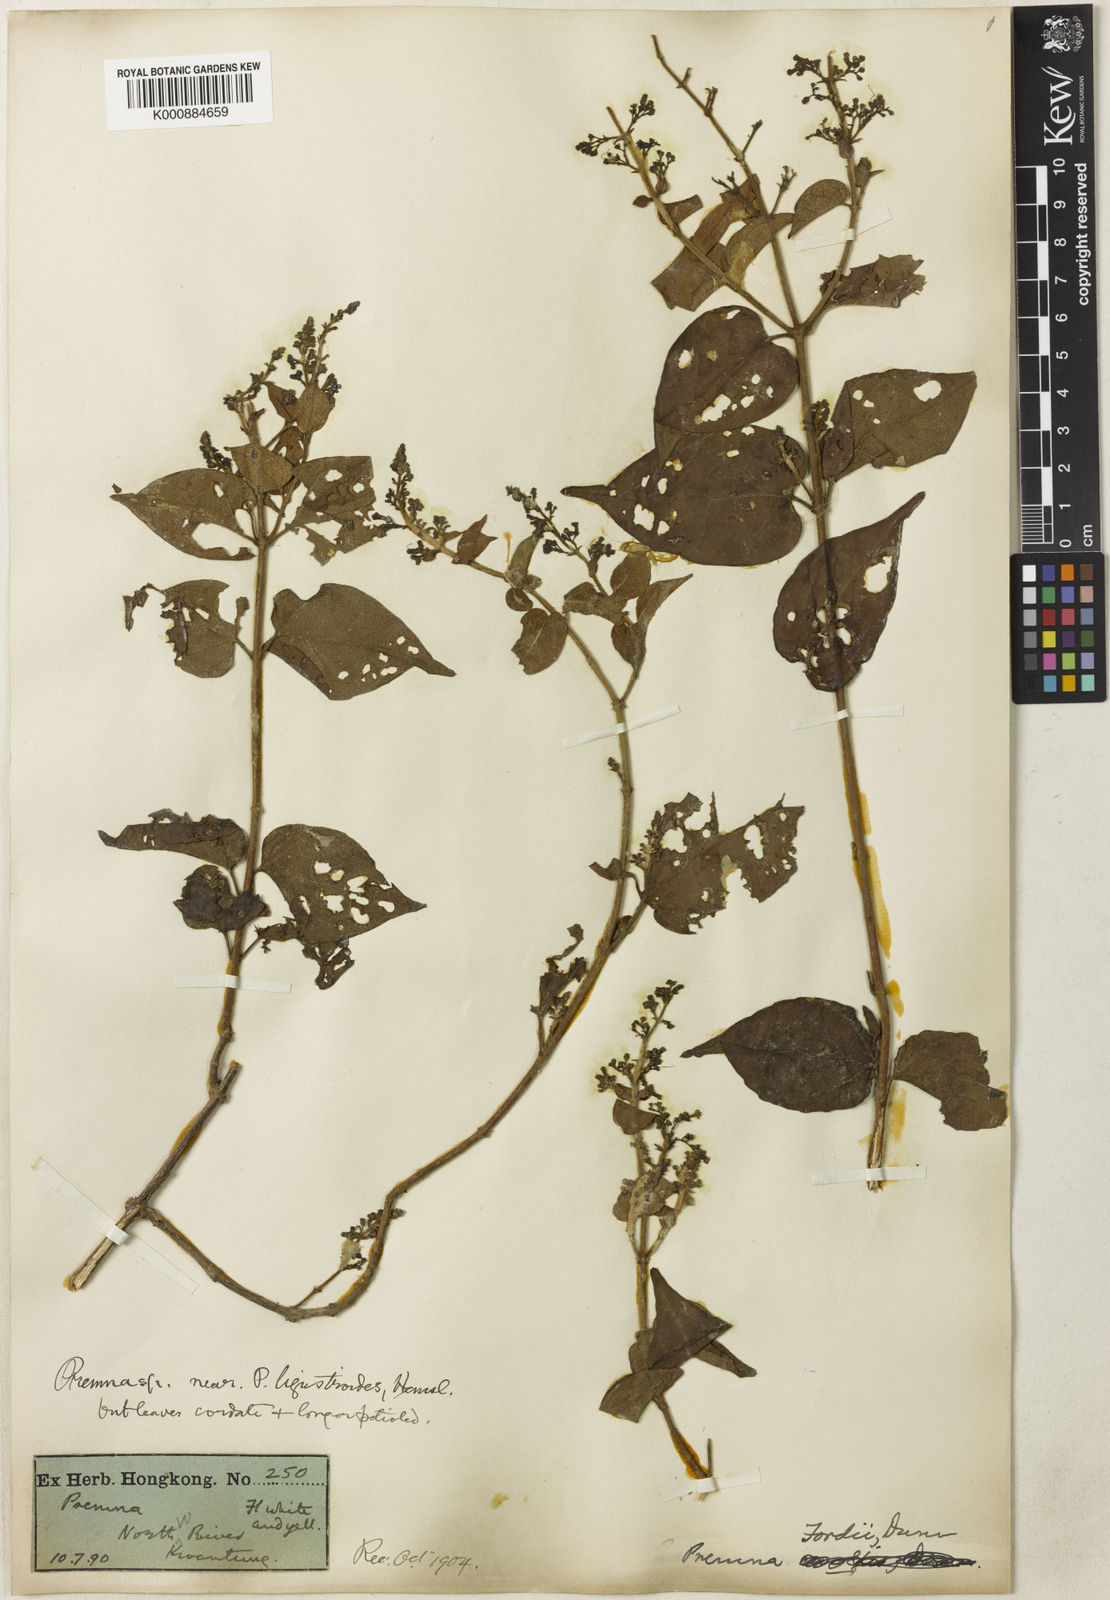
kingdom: Plantae
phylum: Tracheophyta
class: Magnoliopsida
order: Lamiales
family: Lamiaceae
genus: Premna
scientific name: Premna fordii
